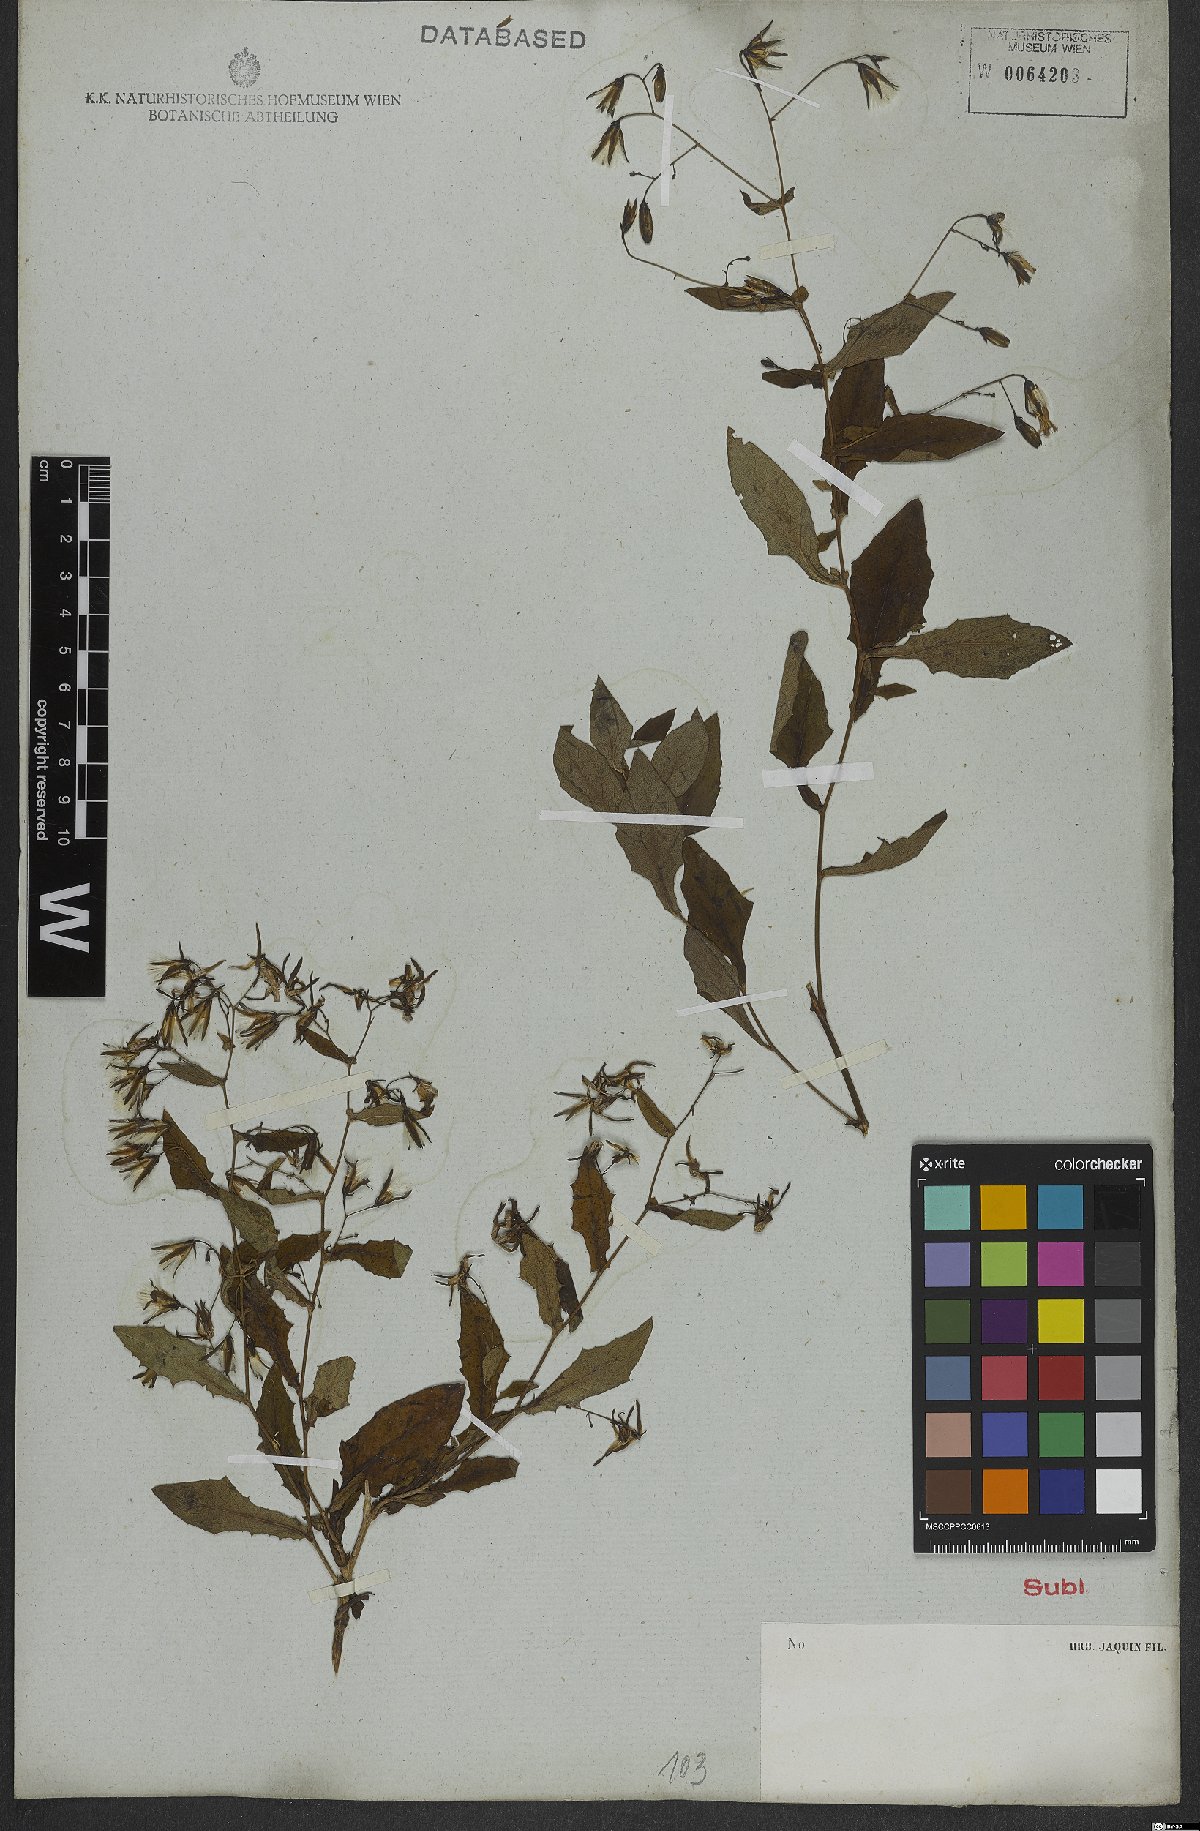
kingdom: Plantae
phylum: Tracheophyta
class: Magnoliopsida
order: Asterales
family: Asteraceae
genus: Prenanthes
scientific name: Prenanthes purpurea
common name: Purple lettuce
